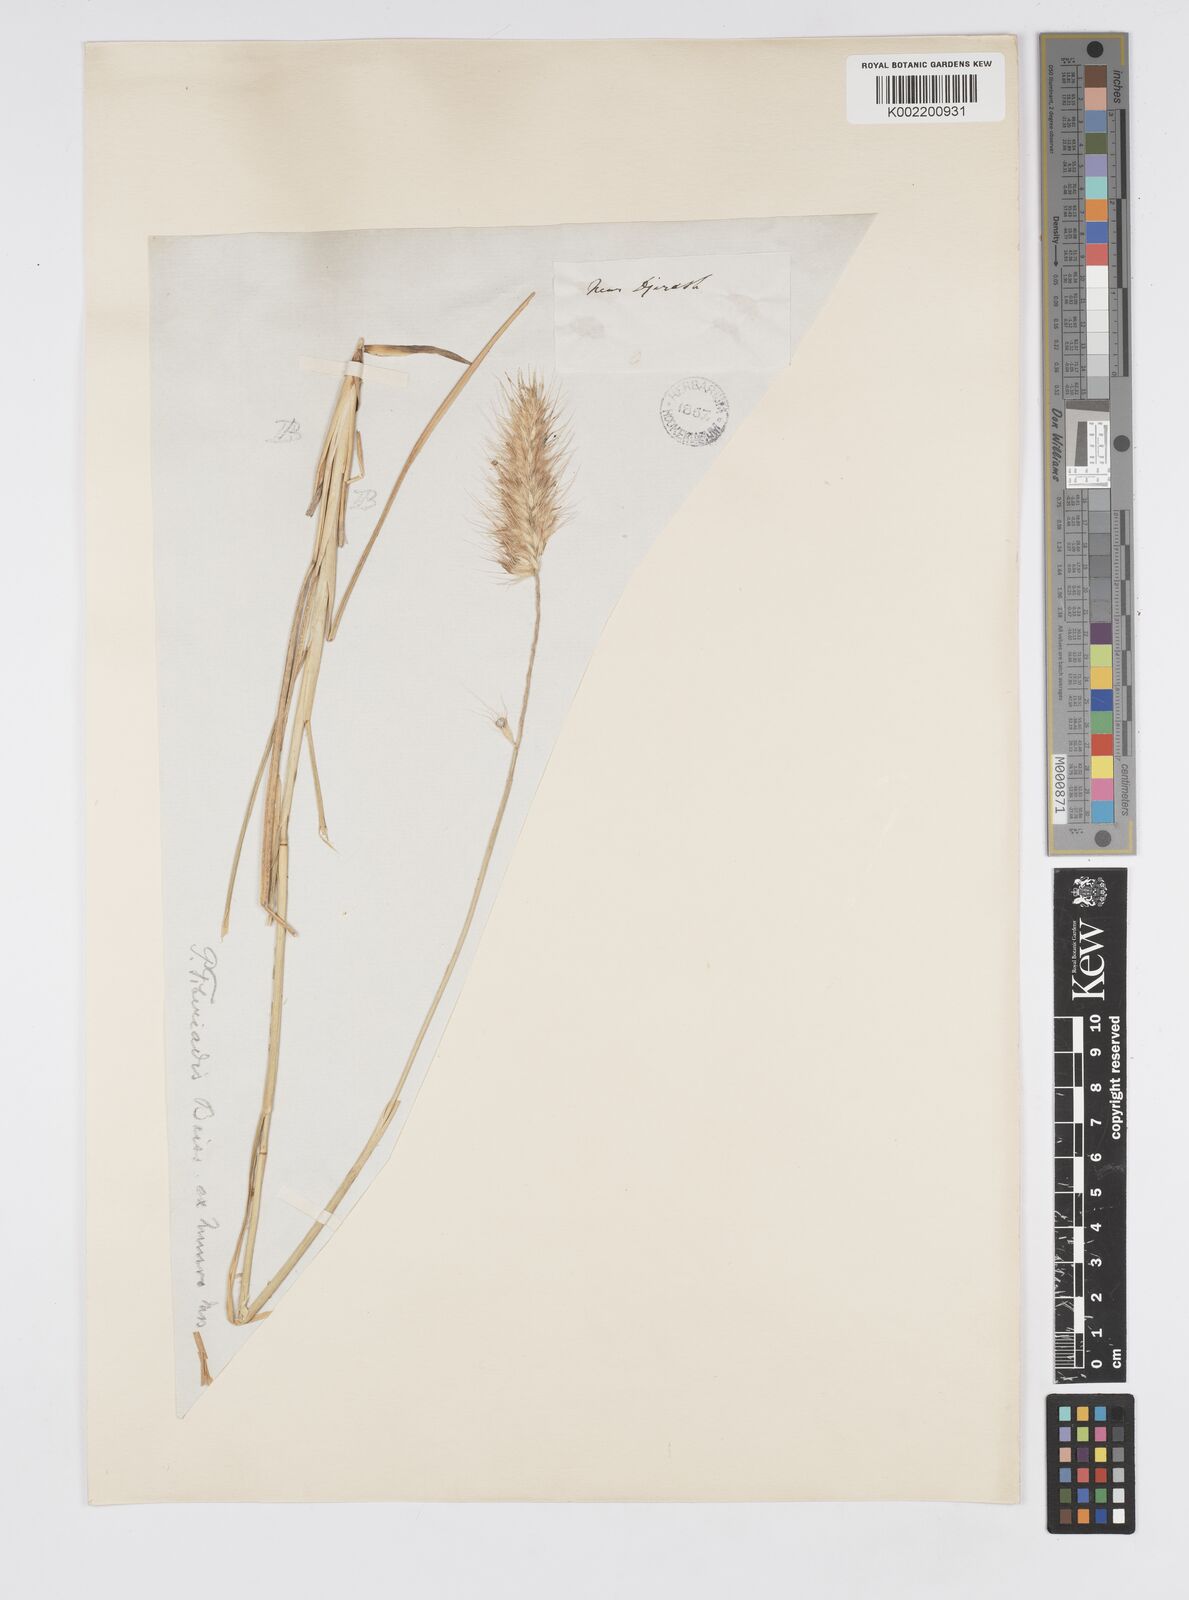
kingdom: Plantae
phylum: Tracheophyta
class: Liliopsida
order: Poales
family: Poaceae
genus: Cenchrus
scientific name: Cenchrus setaceus
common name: Crimson fountaingrass
